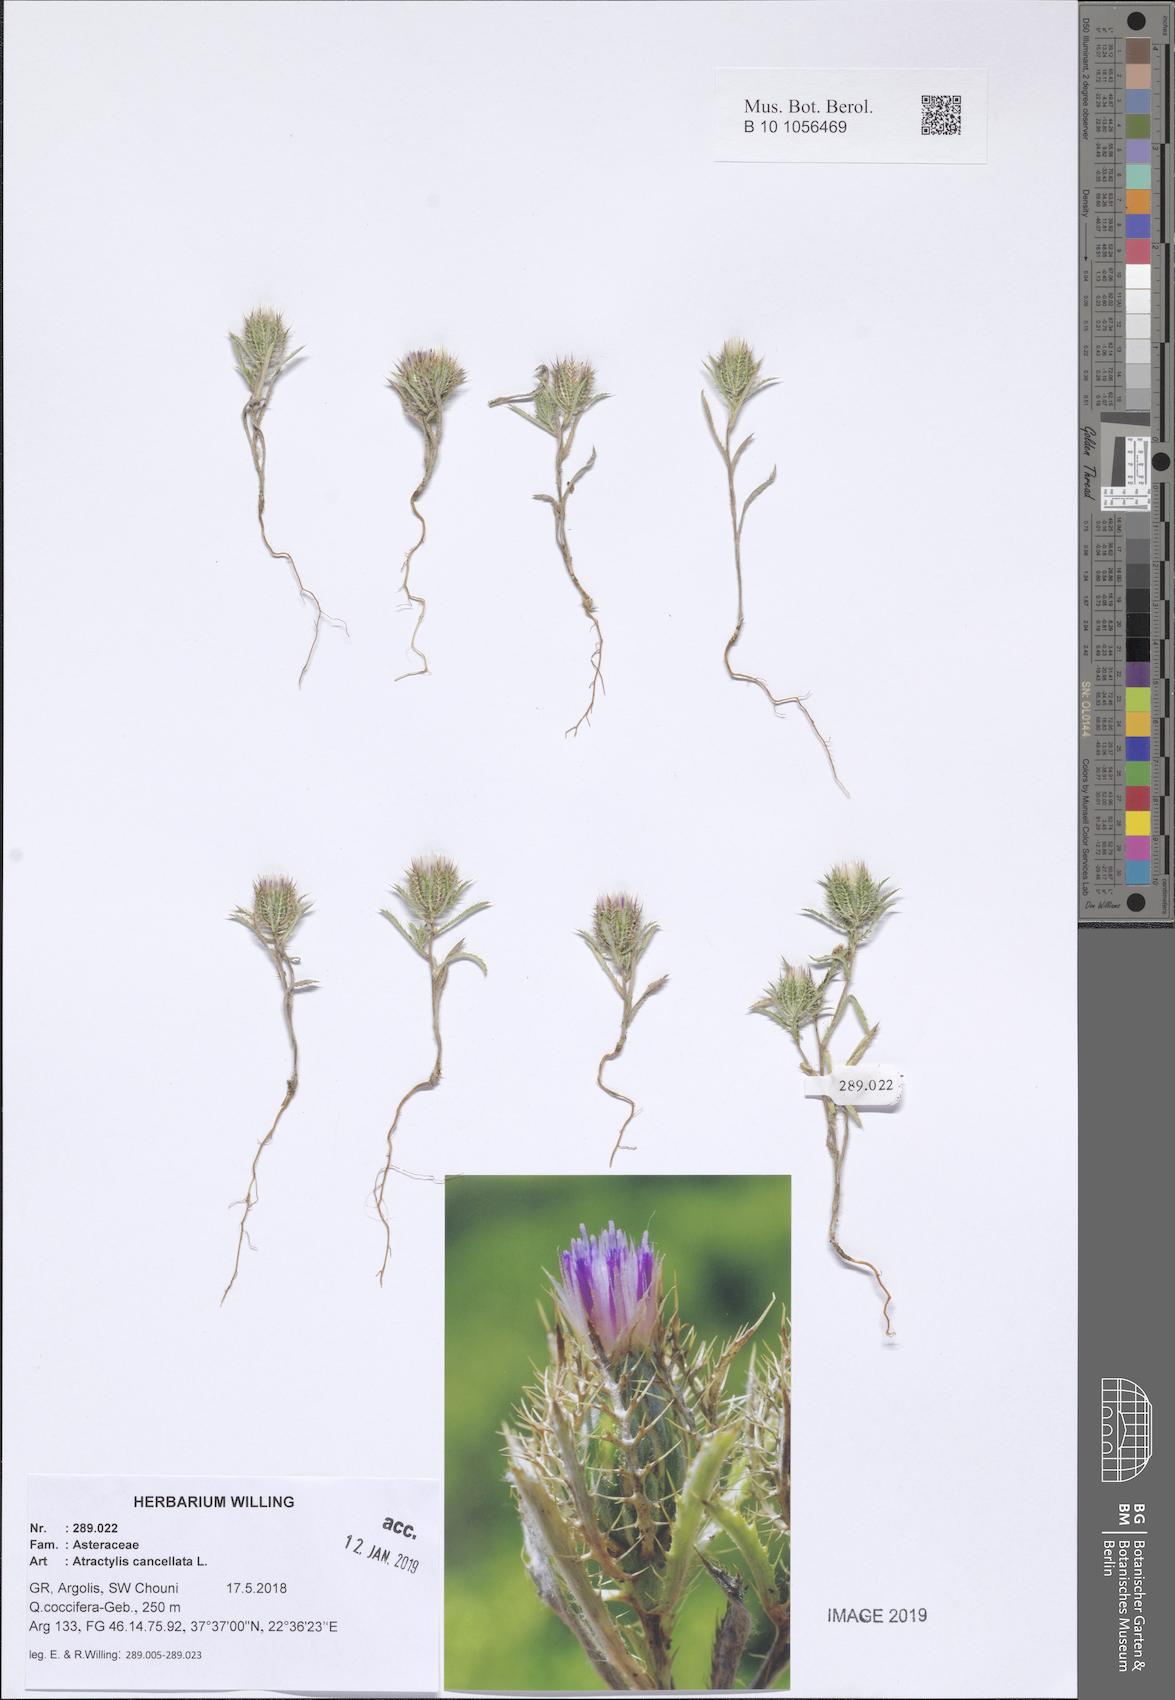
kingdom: Plantae
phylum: Tracheophyta
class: Magnoliopsida
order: Asterales
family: Asteraceae
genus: Atractylis
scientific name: Atractylis cancellata
